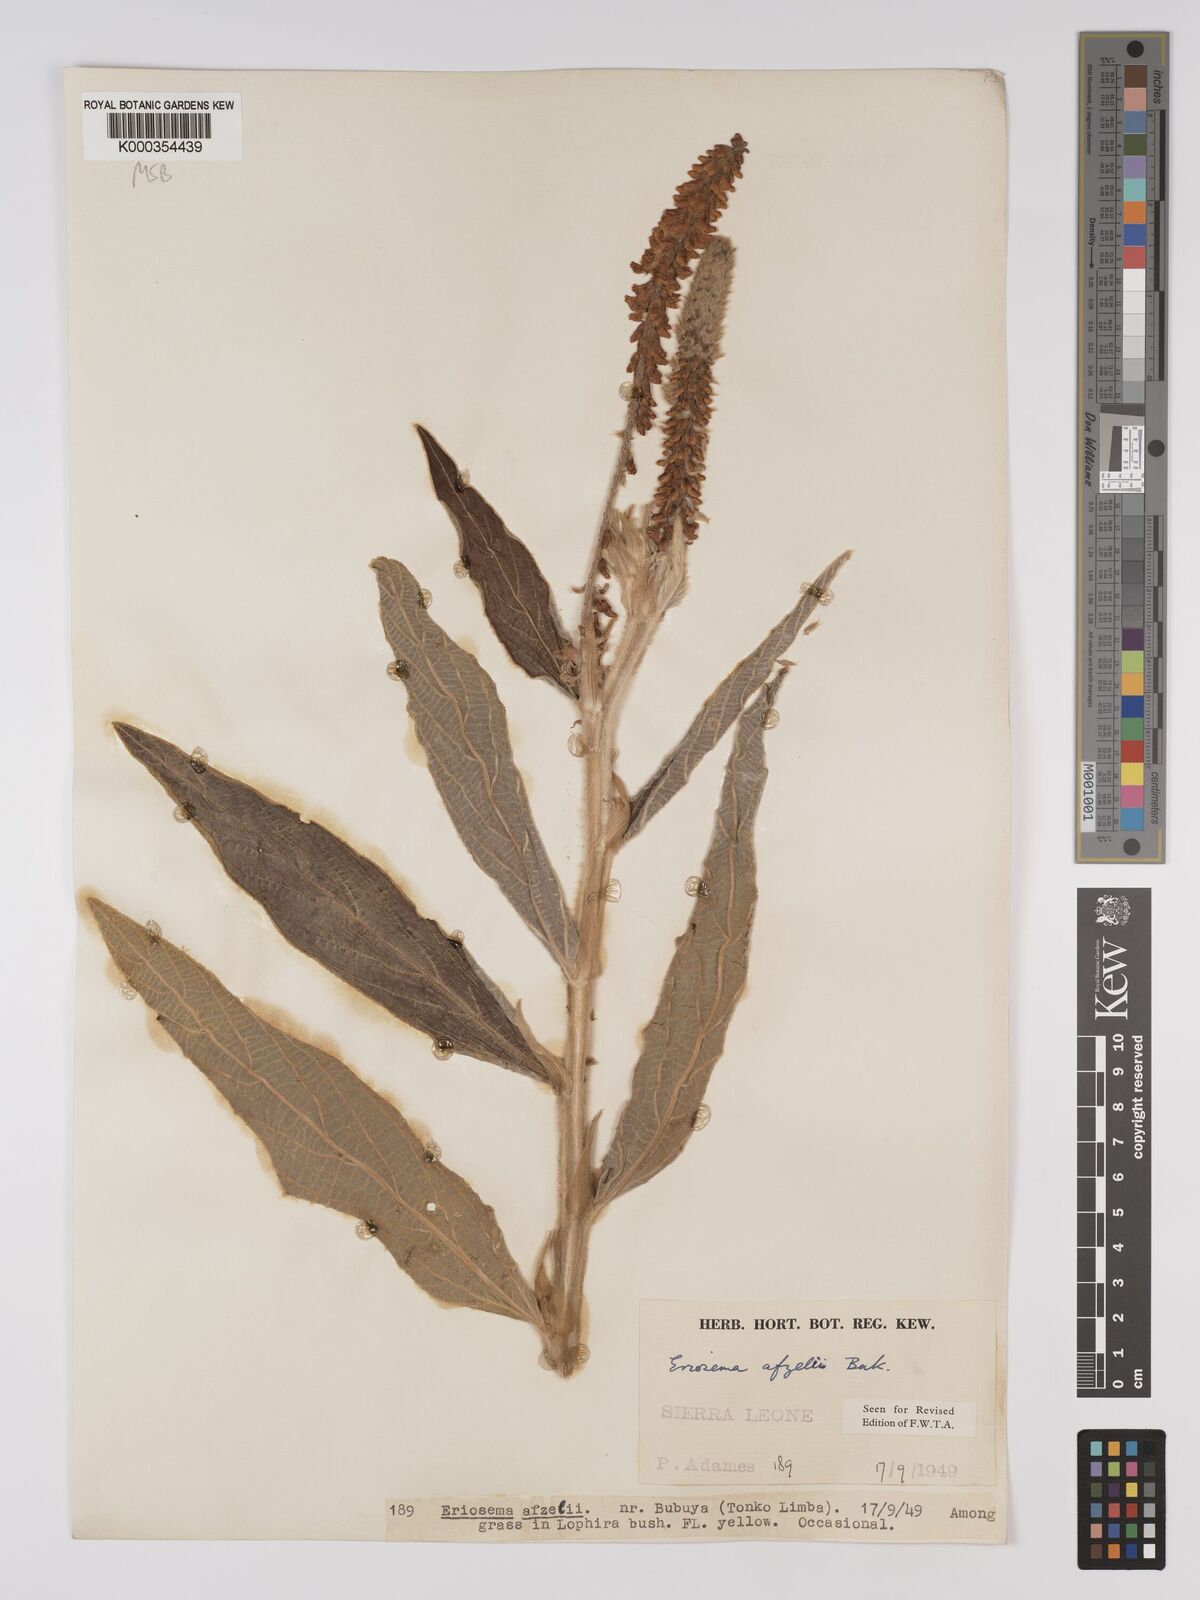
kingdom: Plantae
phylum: Tracheophyta
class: Magnoliopsida
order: Fabales
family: Fabaceae
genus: Eriosema
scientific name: Eriosema afzelii
